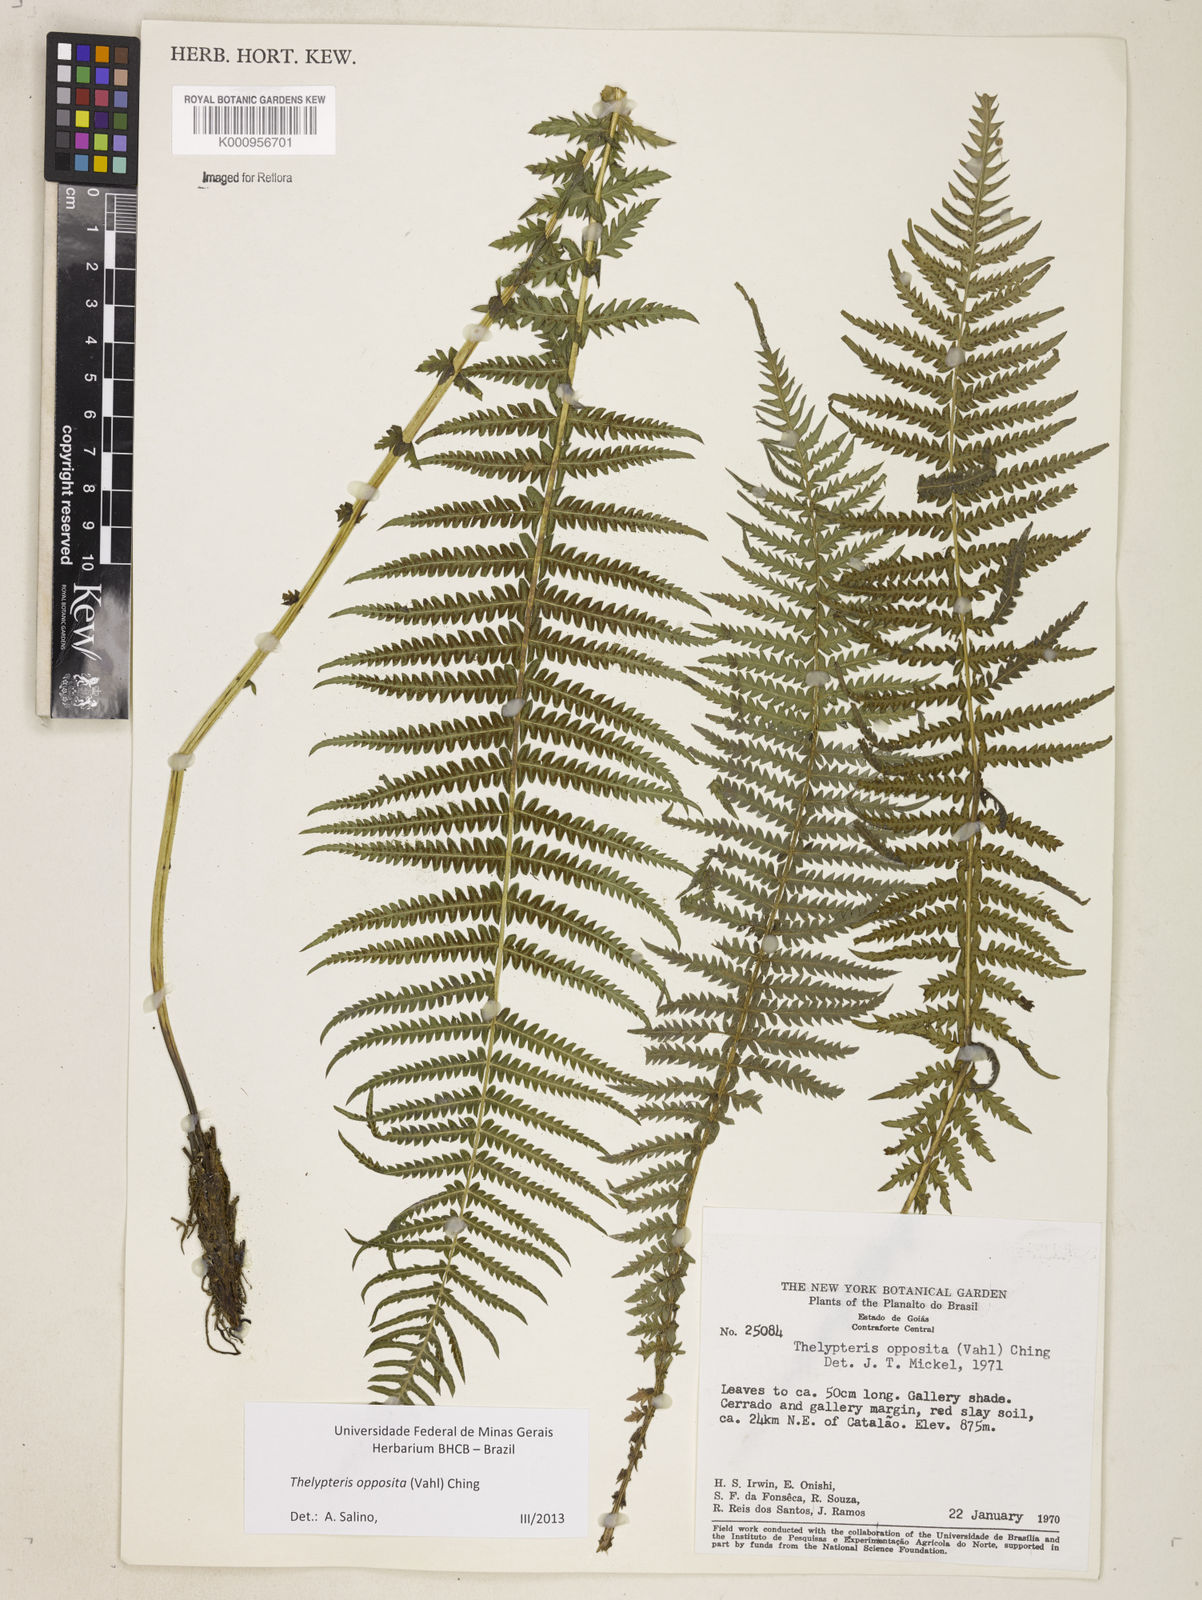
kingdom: Plantae
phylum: Tracheophyta
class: Polypodiopsida
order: Polypodiales
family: Thelypteridaceae
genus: Amauropelta
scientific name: Amauropelta opposita
